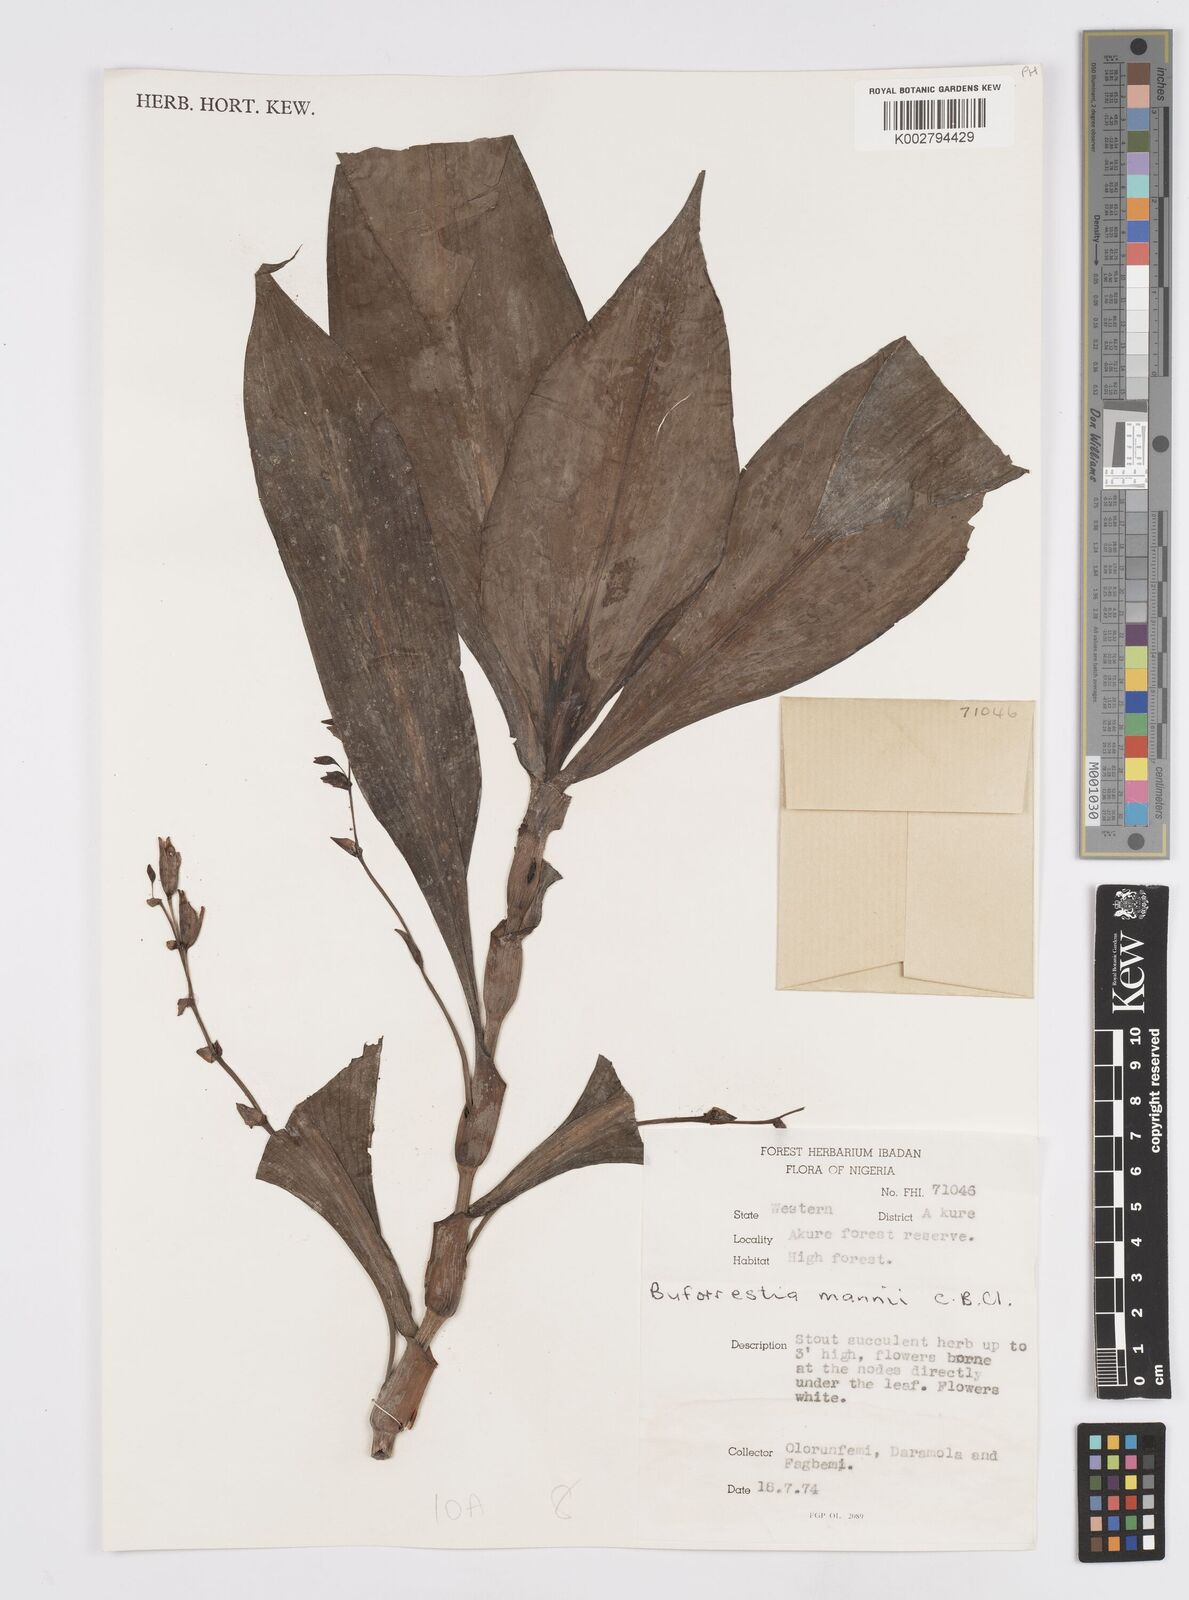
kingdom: Plantae
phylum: Tracheophyta
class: Liliopsida
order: Commelinales
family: Commelinaceae
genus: Buforrestia
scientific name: Buforrestia mannii
